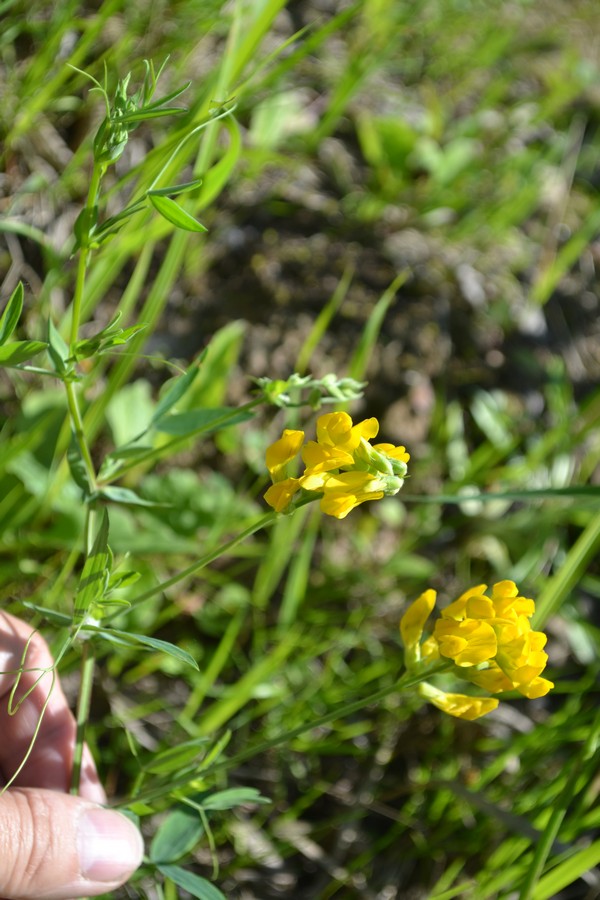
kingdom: Plantae
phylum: Tracheophyta
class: Magnoliopsida
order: Fabales
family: Fabaceae
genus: Lotus
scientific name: Lotus corniculatus
